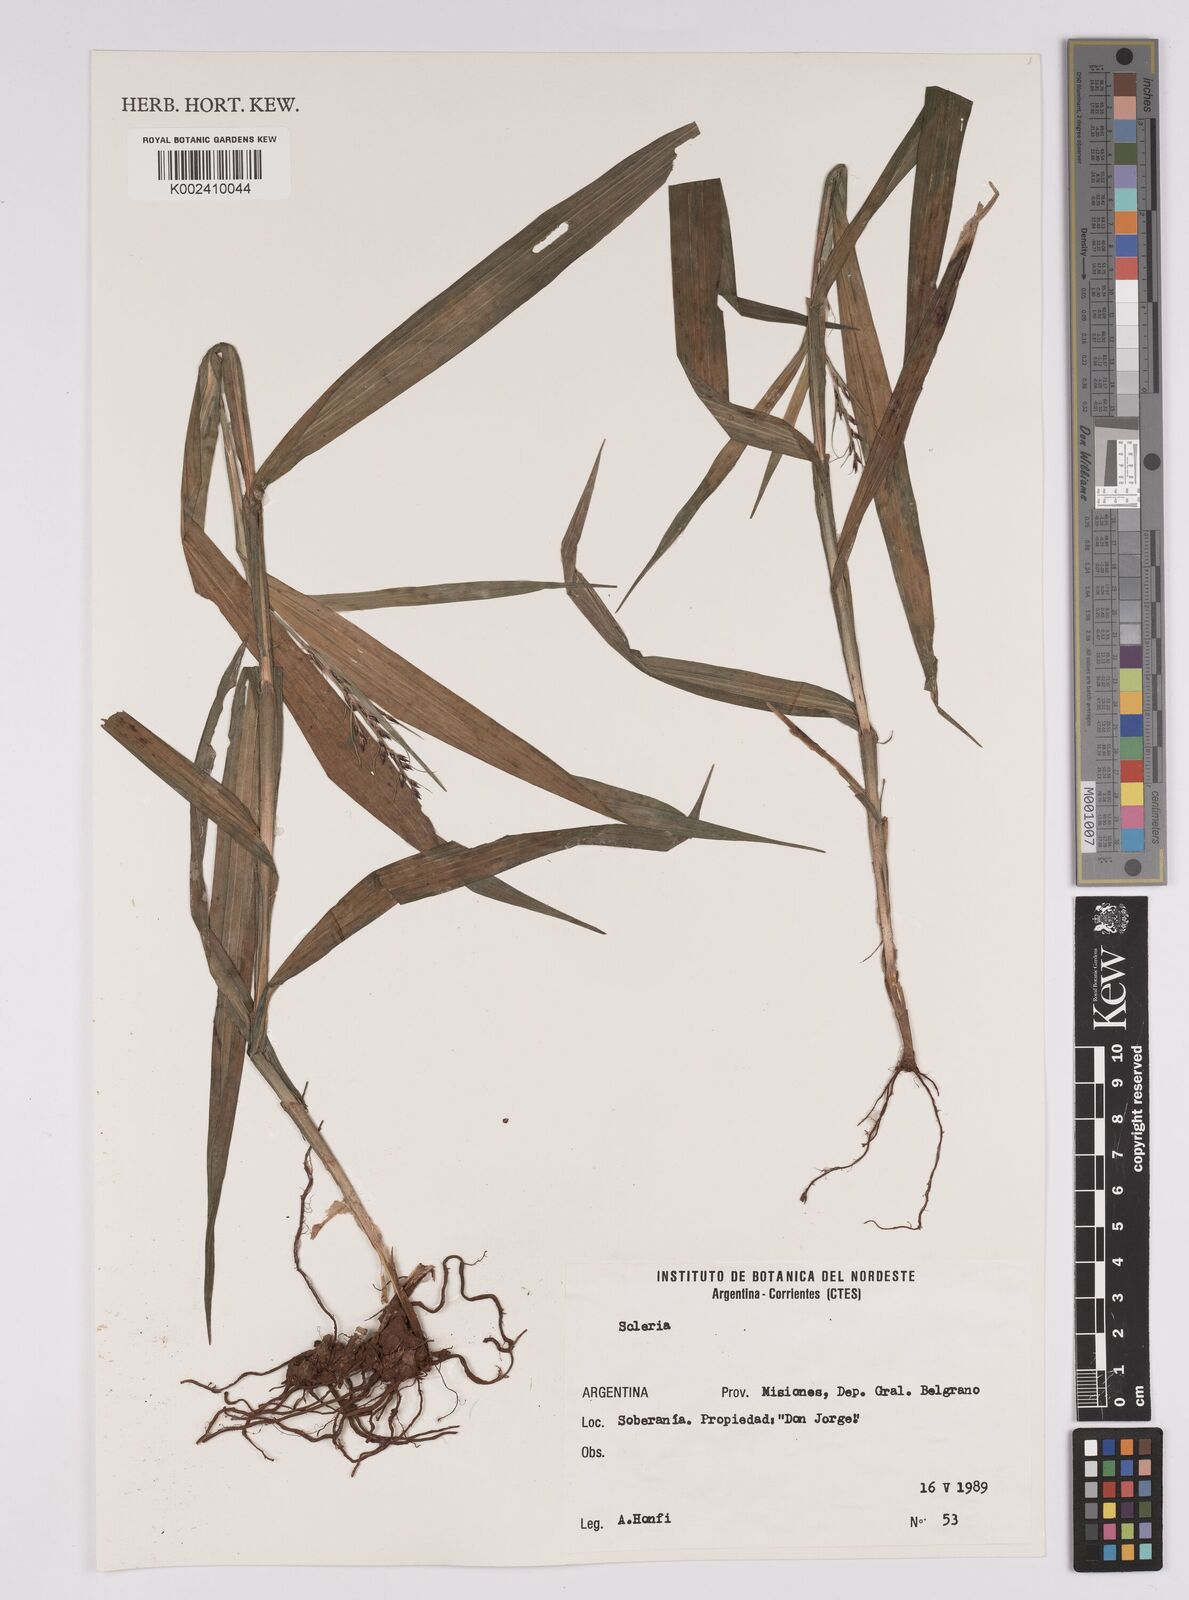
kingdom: Plantae
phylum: Tracheophyta
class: Liliopsida
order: Poales
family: Cyperaceae
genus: Scleria
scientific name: Scleria
